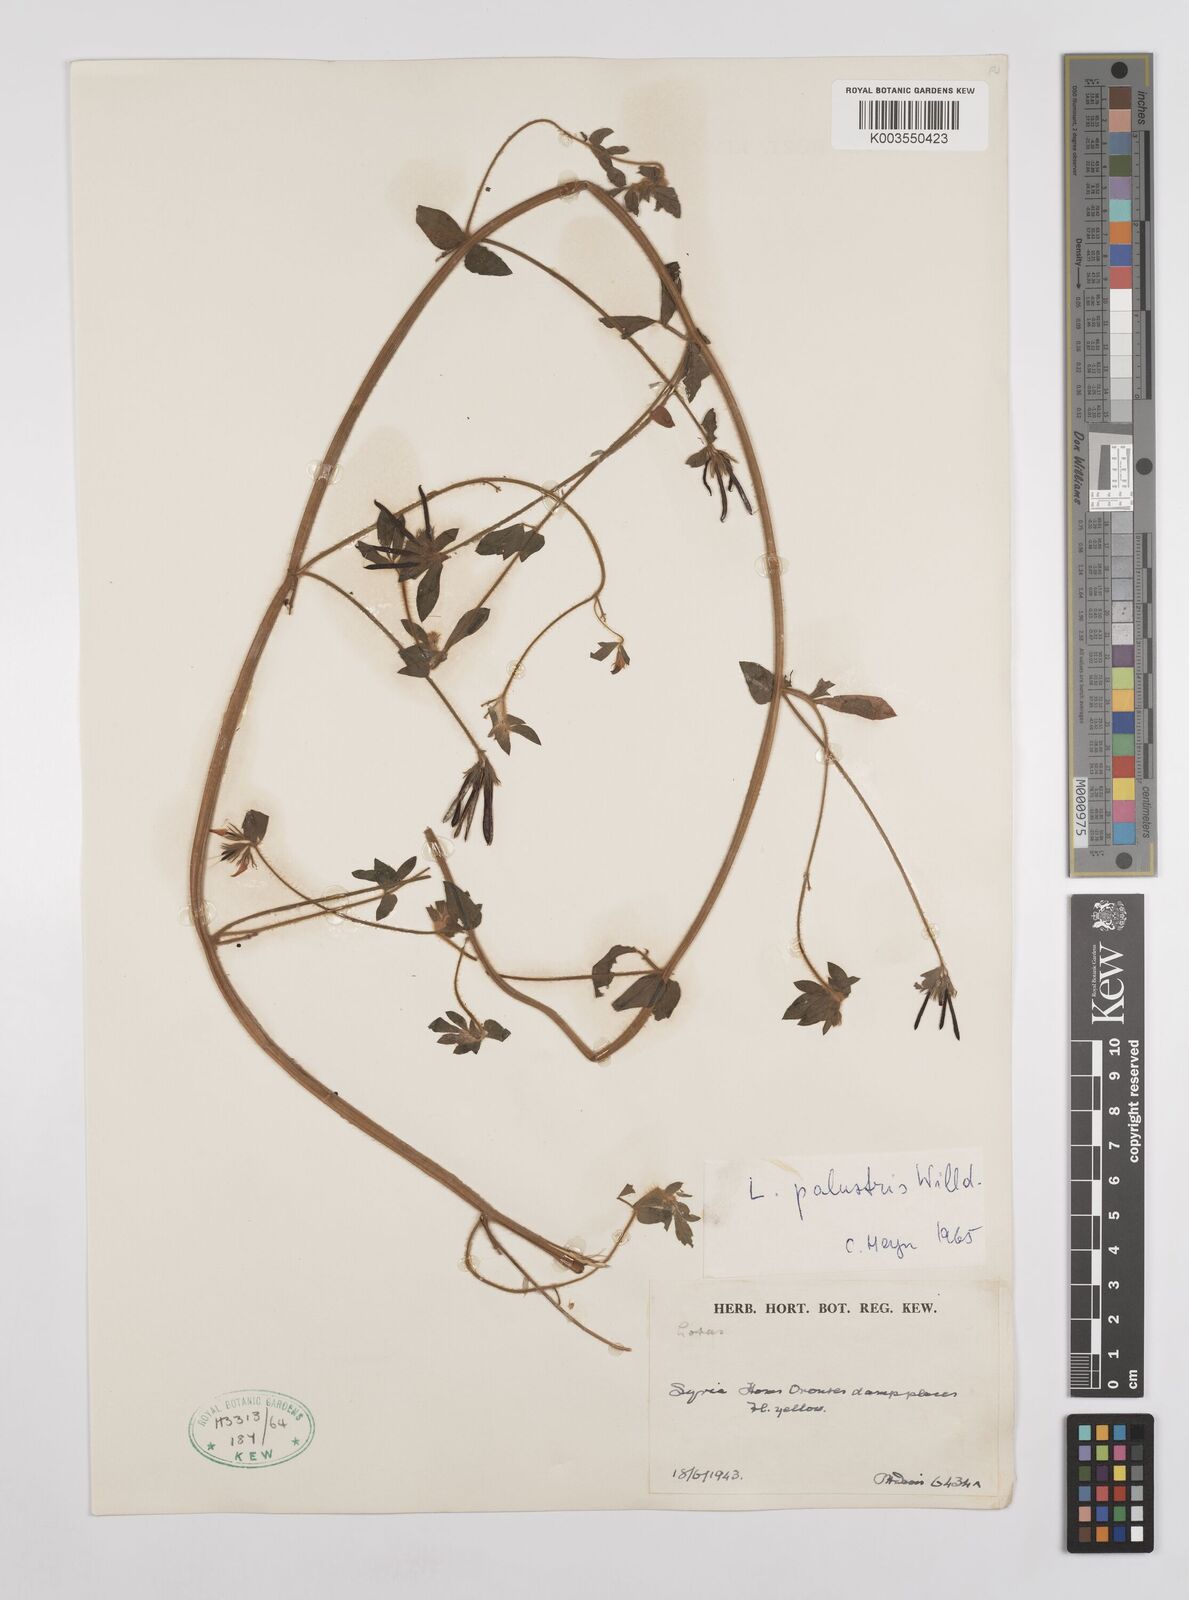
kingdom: Plantae
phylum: Tracheophyta
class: Magnoliopsida
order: Fabales
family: Fabaceae
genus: Lotus
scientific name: Lotus palustris
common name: Large birds-foot trefoil
